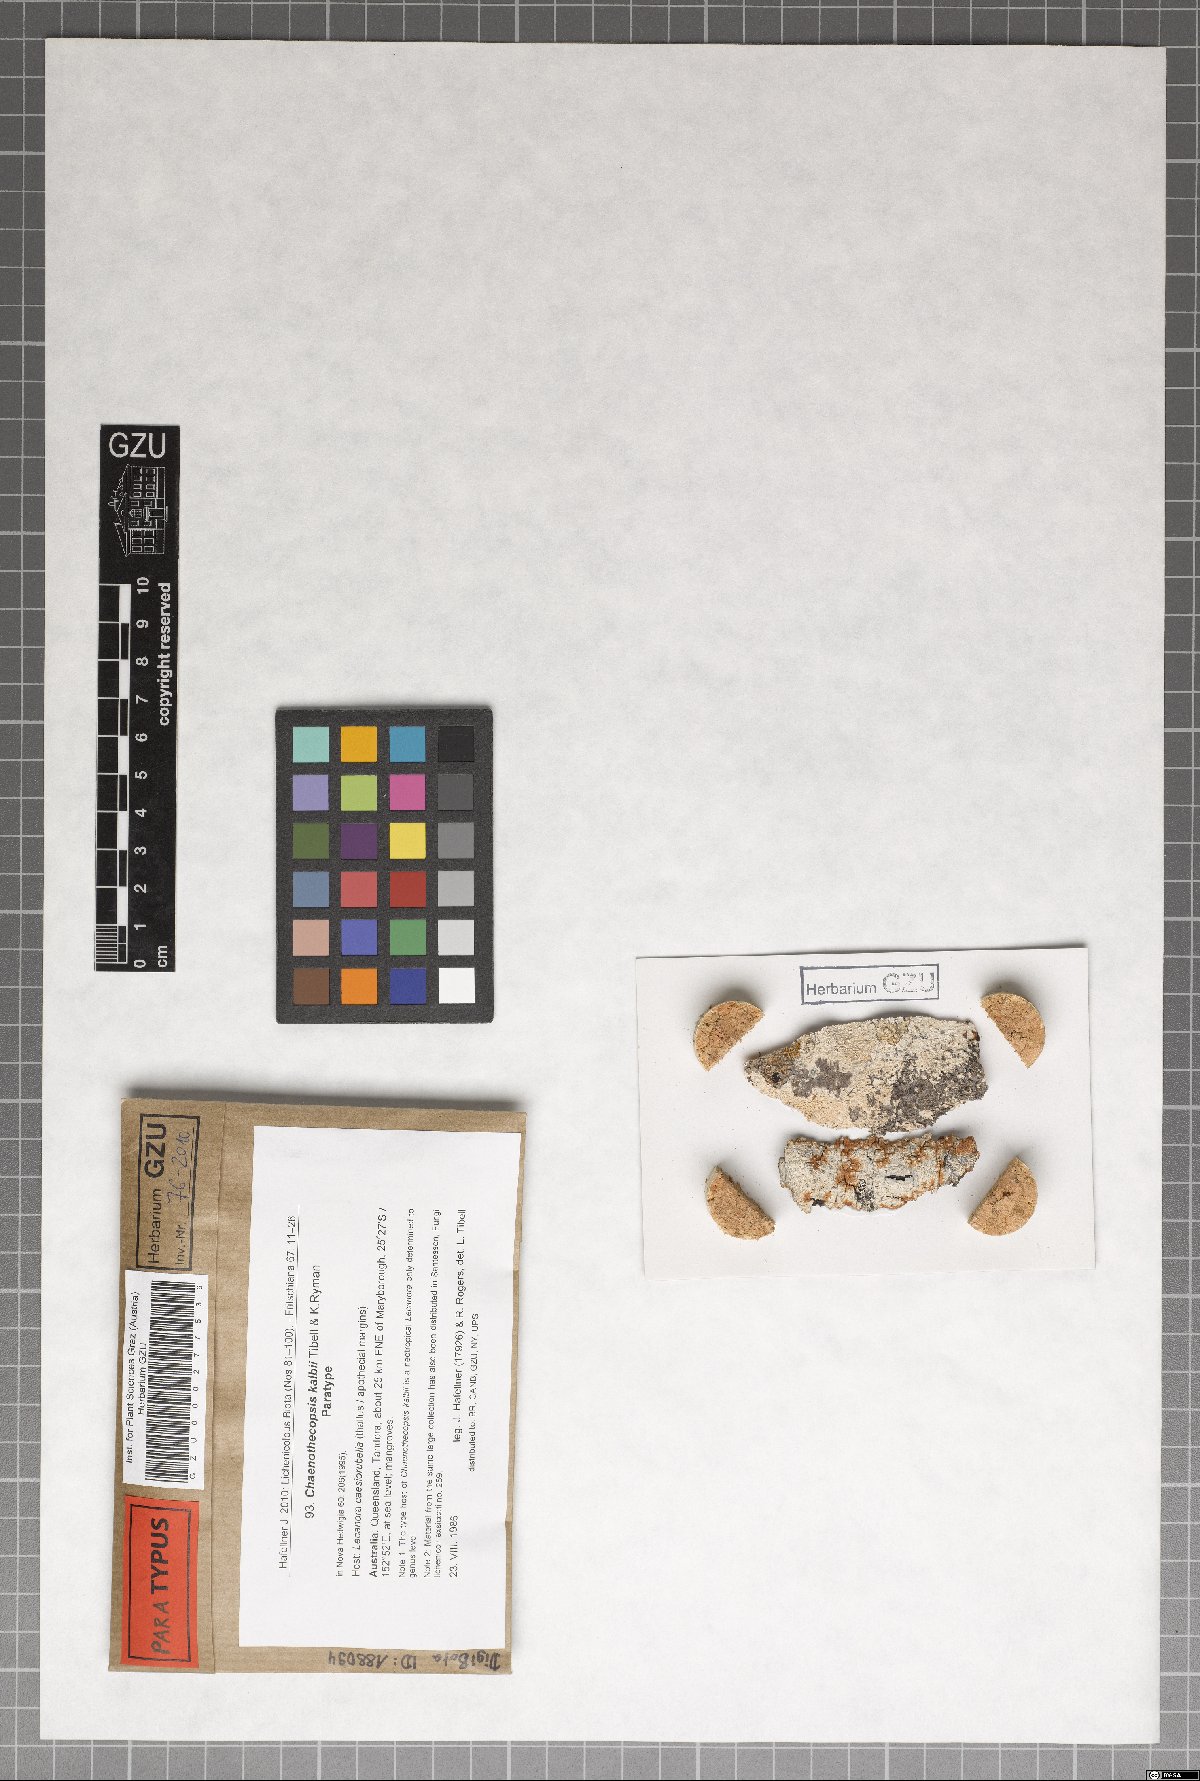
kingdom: Fungi
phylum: Ascomycota
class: Eurotiomycetes
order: Mycocaliciales
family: Mycocaliciaceae
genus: Chaenothecopsis
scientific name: Chaenothecopsis kalbii
